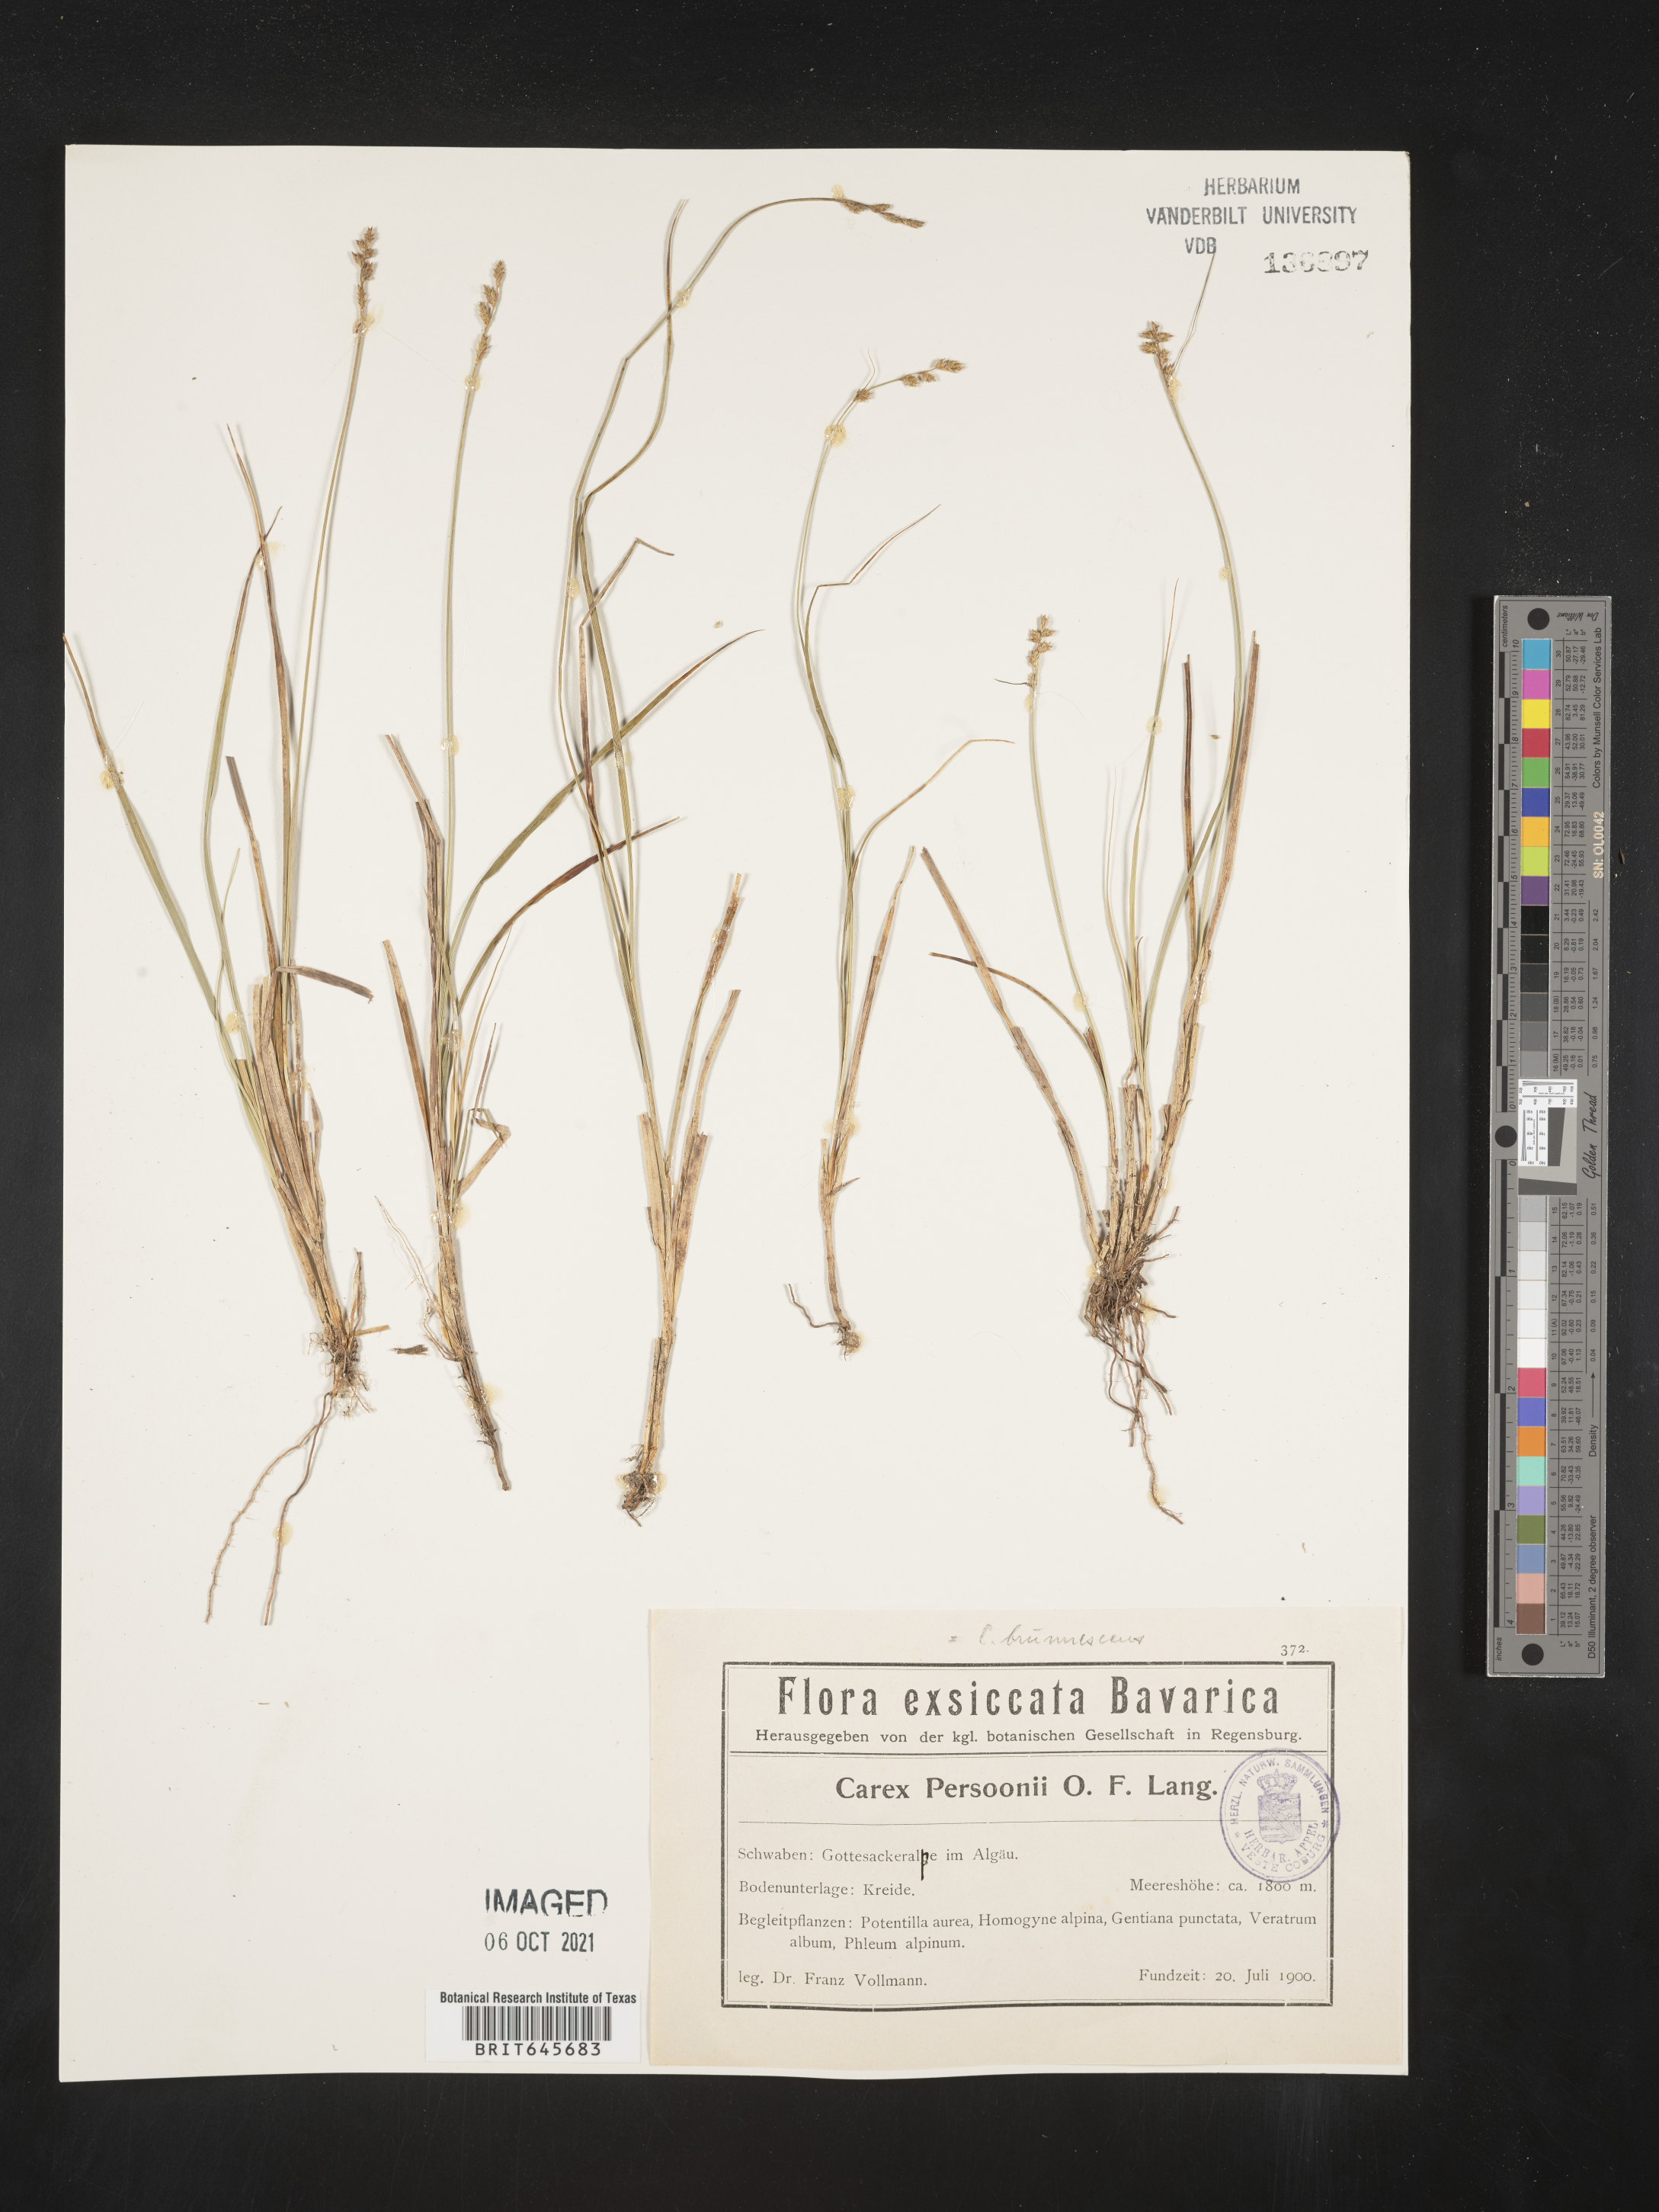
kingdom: Plantae
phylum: Tracheophyta
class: Liliopsida
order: Poales
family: Cyperaceae
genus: Carex
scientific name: Carex
